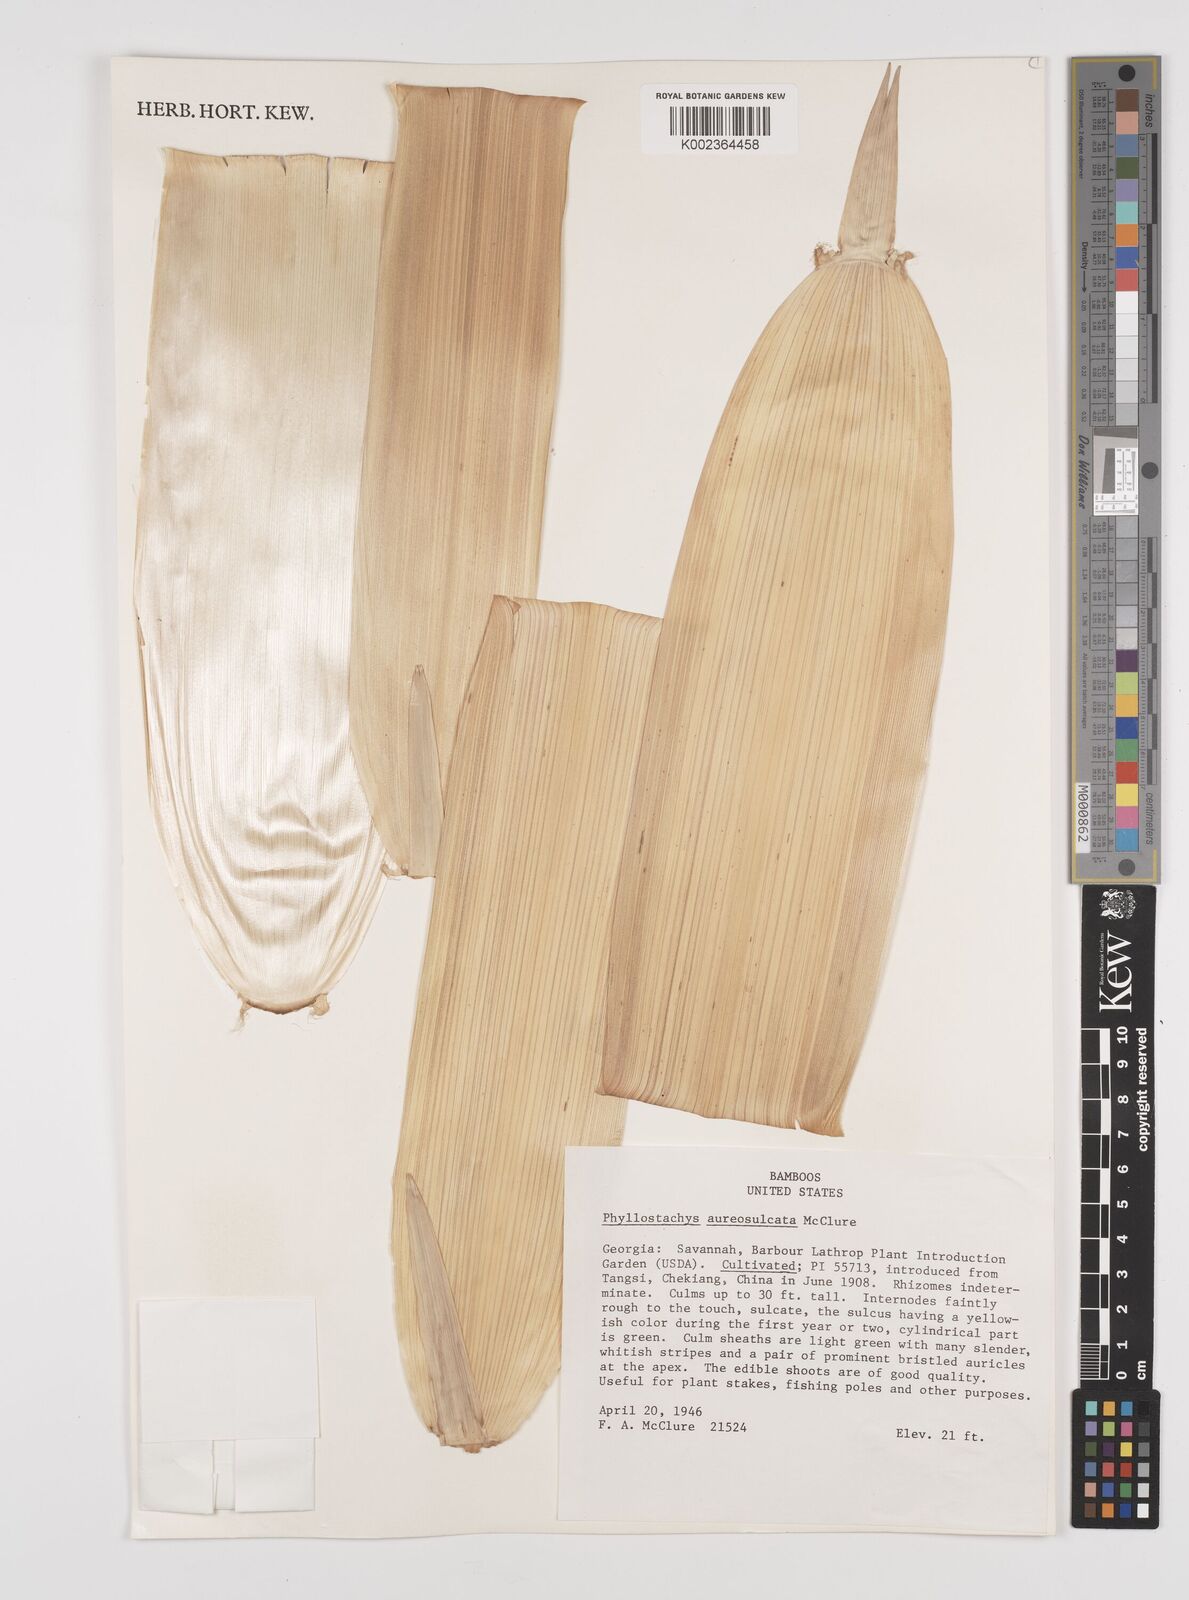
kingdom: Plantae
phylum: Tracheophyta
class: Liliopsida
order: Poales
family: Poaceae
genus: Phyllostachys
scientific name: Phyllostachys aureosulcata
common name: Yellow groove bamboo
